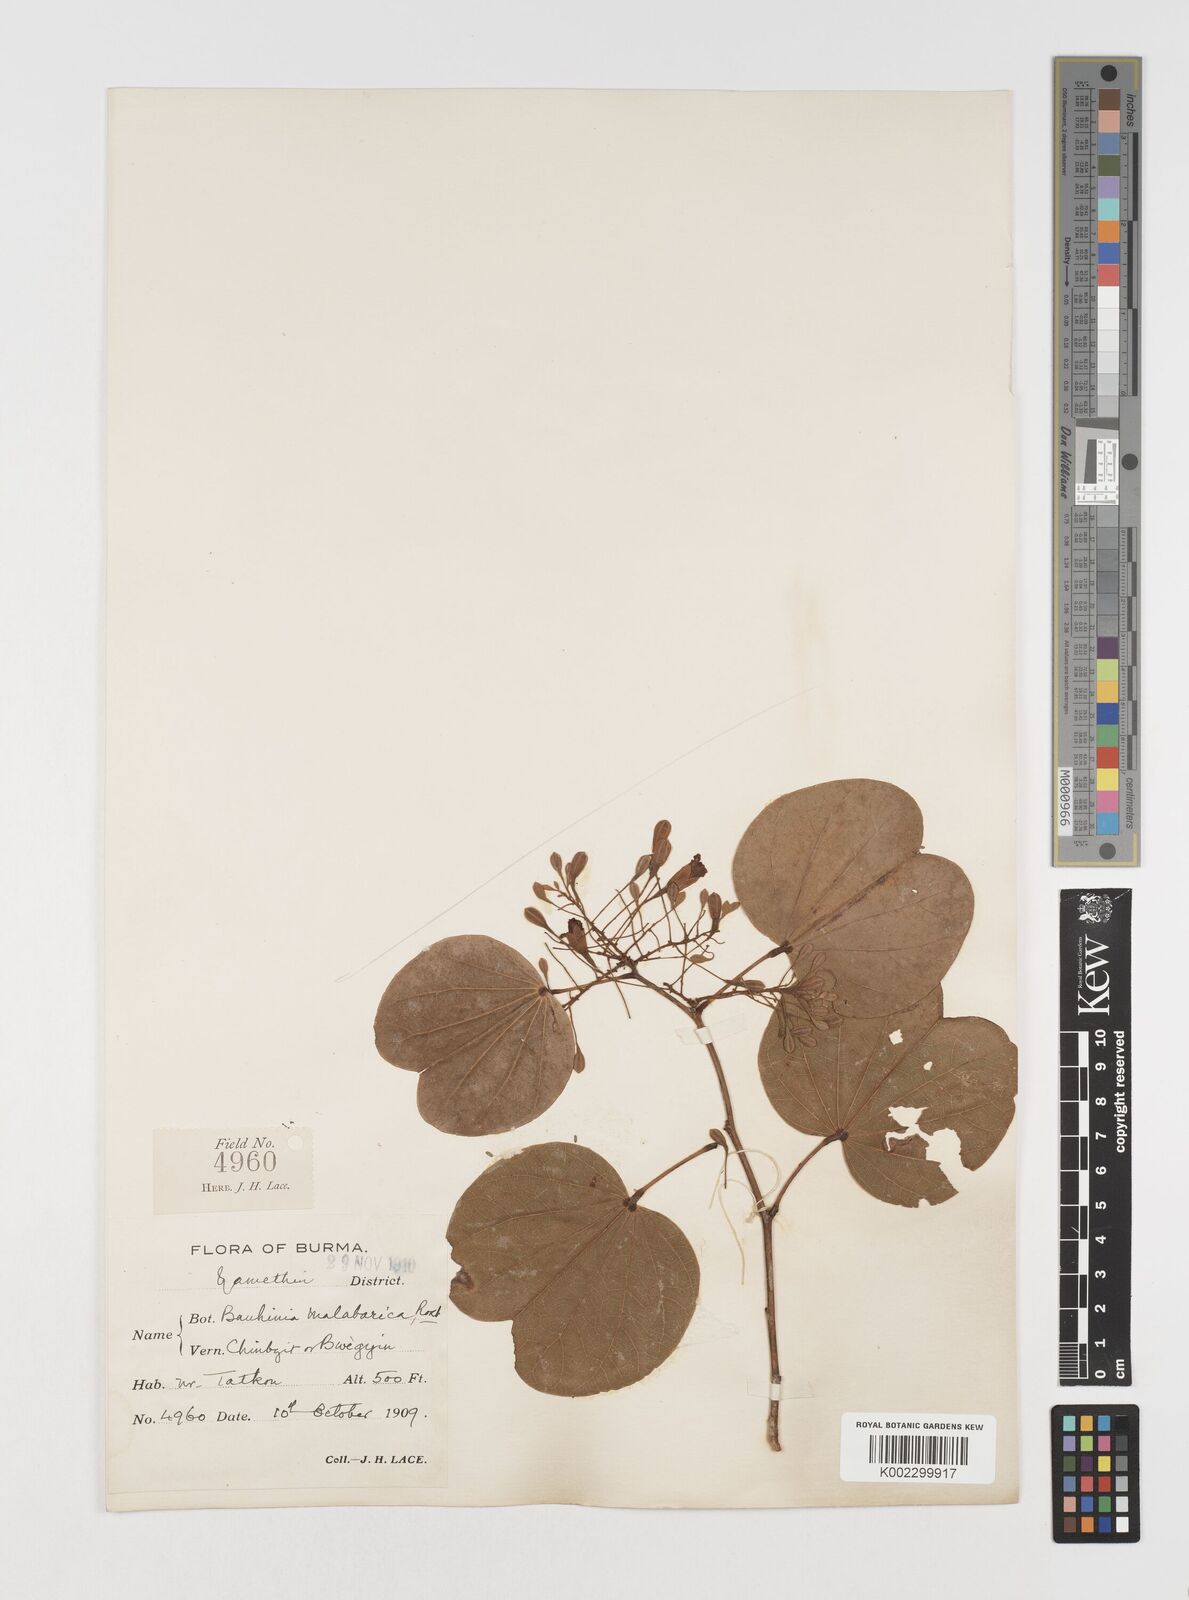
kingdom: Plantae
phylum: Tracheophyta
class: Magnoliopsida
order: Fabales
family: Fabaceae
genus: Piliostigma
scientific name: Piliostigma malabaricum
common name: Malabar bauhinia
